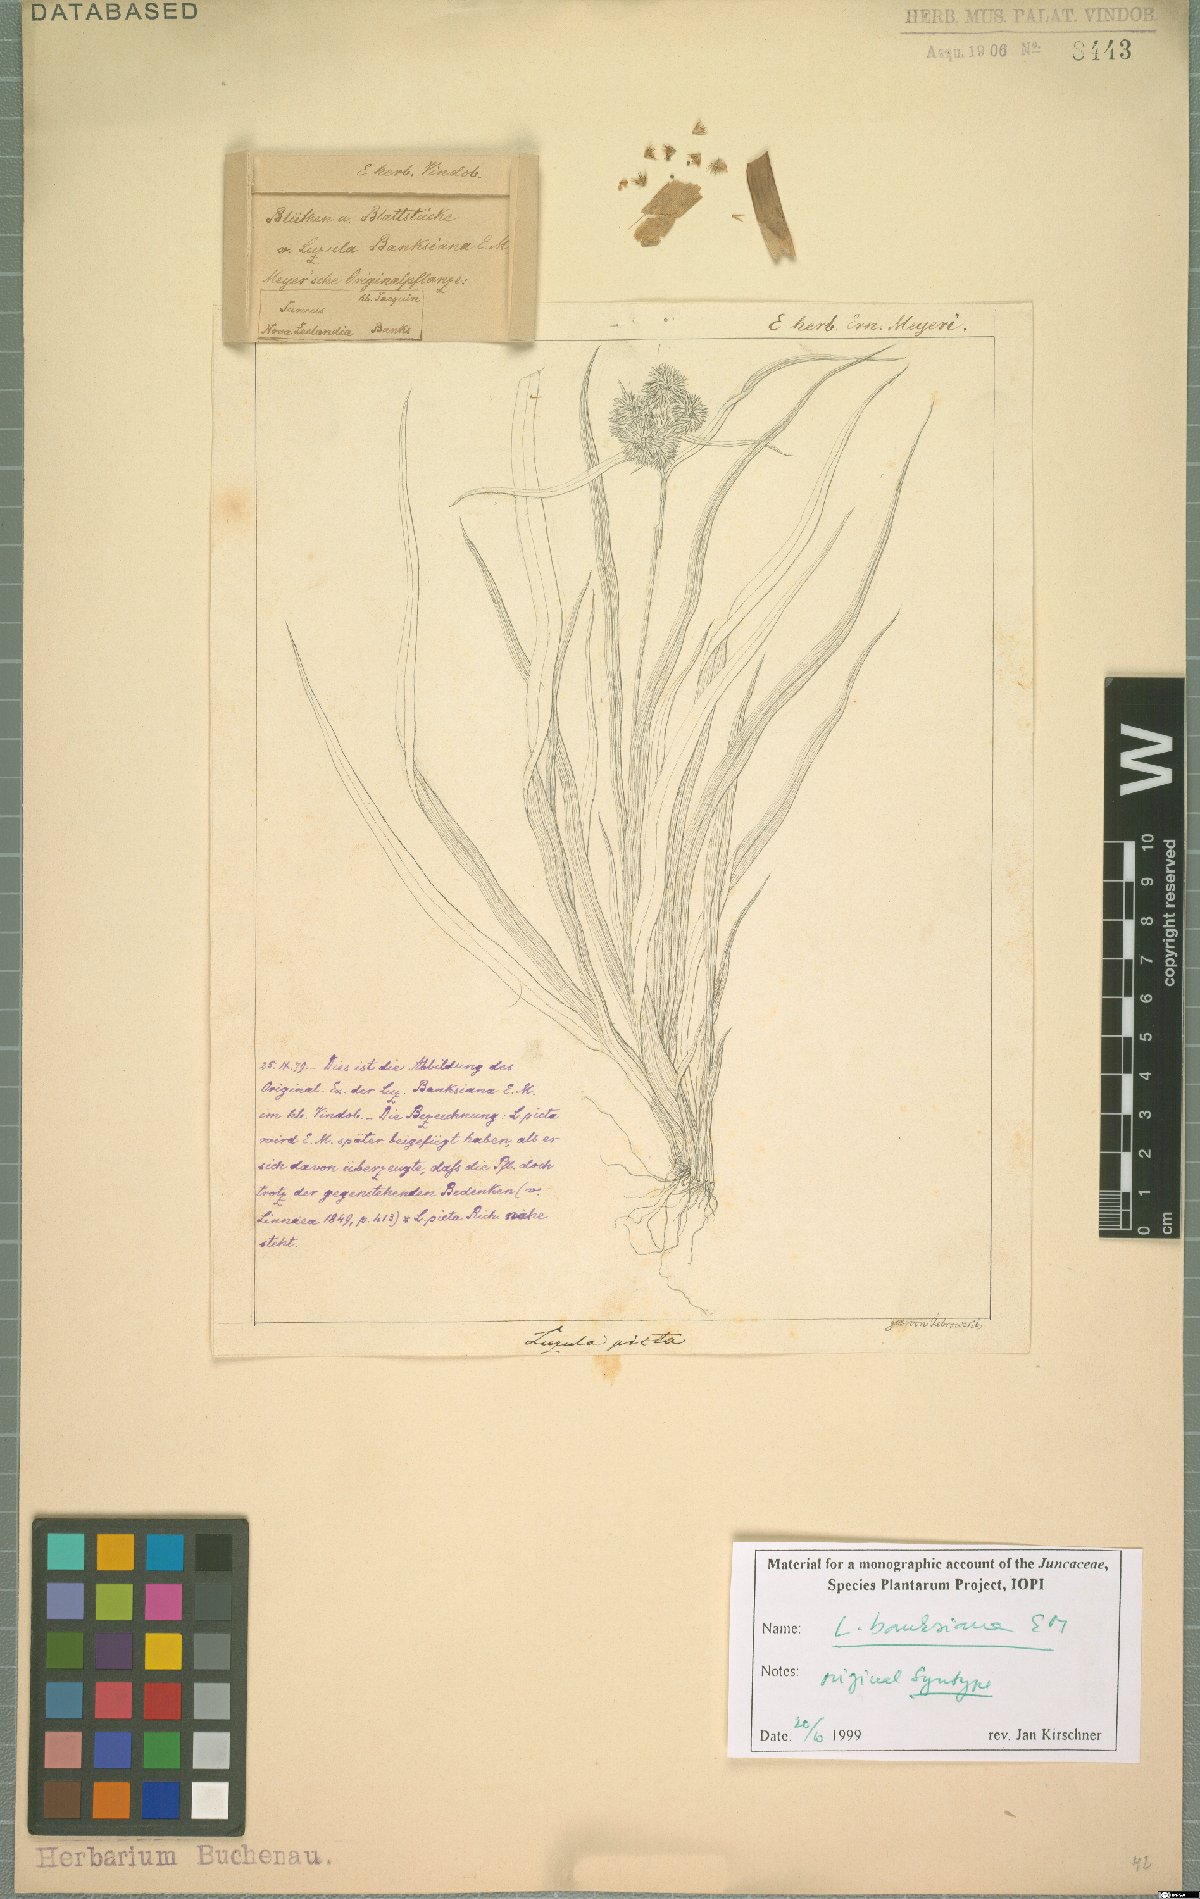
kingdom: Plantae
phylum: Tracheophyta
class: Liliopsida
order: Poales
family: Juncaceae
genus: Luzula
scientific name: Luzula banksiana
